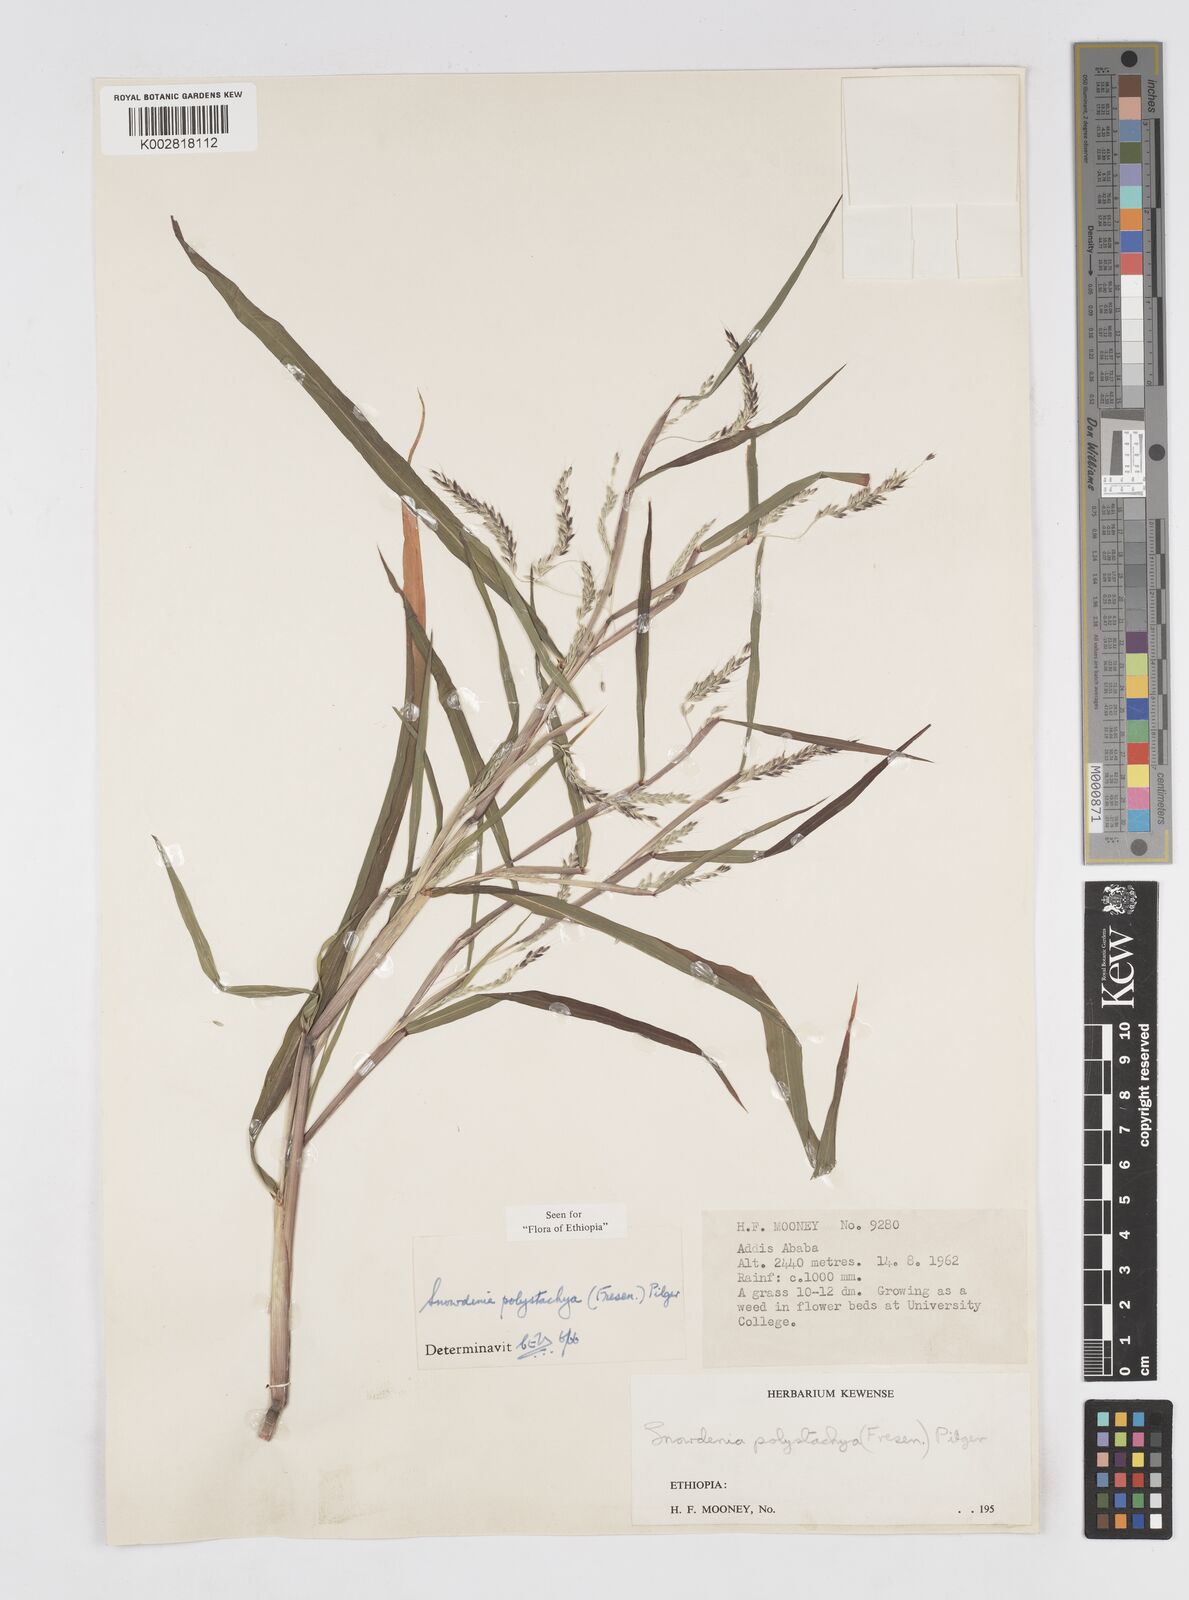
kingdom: Plantae
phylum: Tracheophyta
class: Liliopsida
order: Poales
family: Poaceae
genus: Snowdenia
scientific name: Snowdenia polystachya
